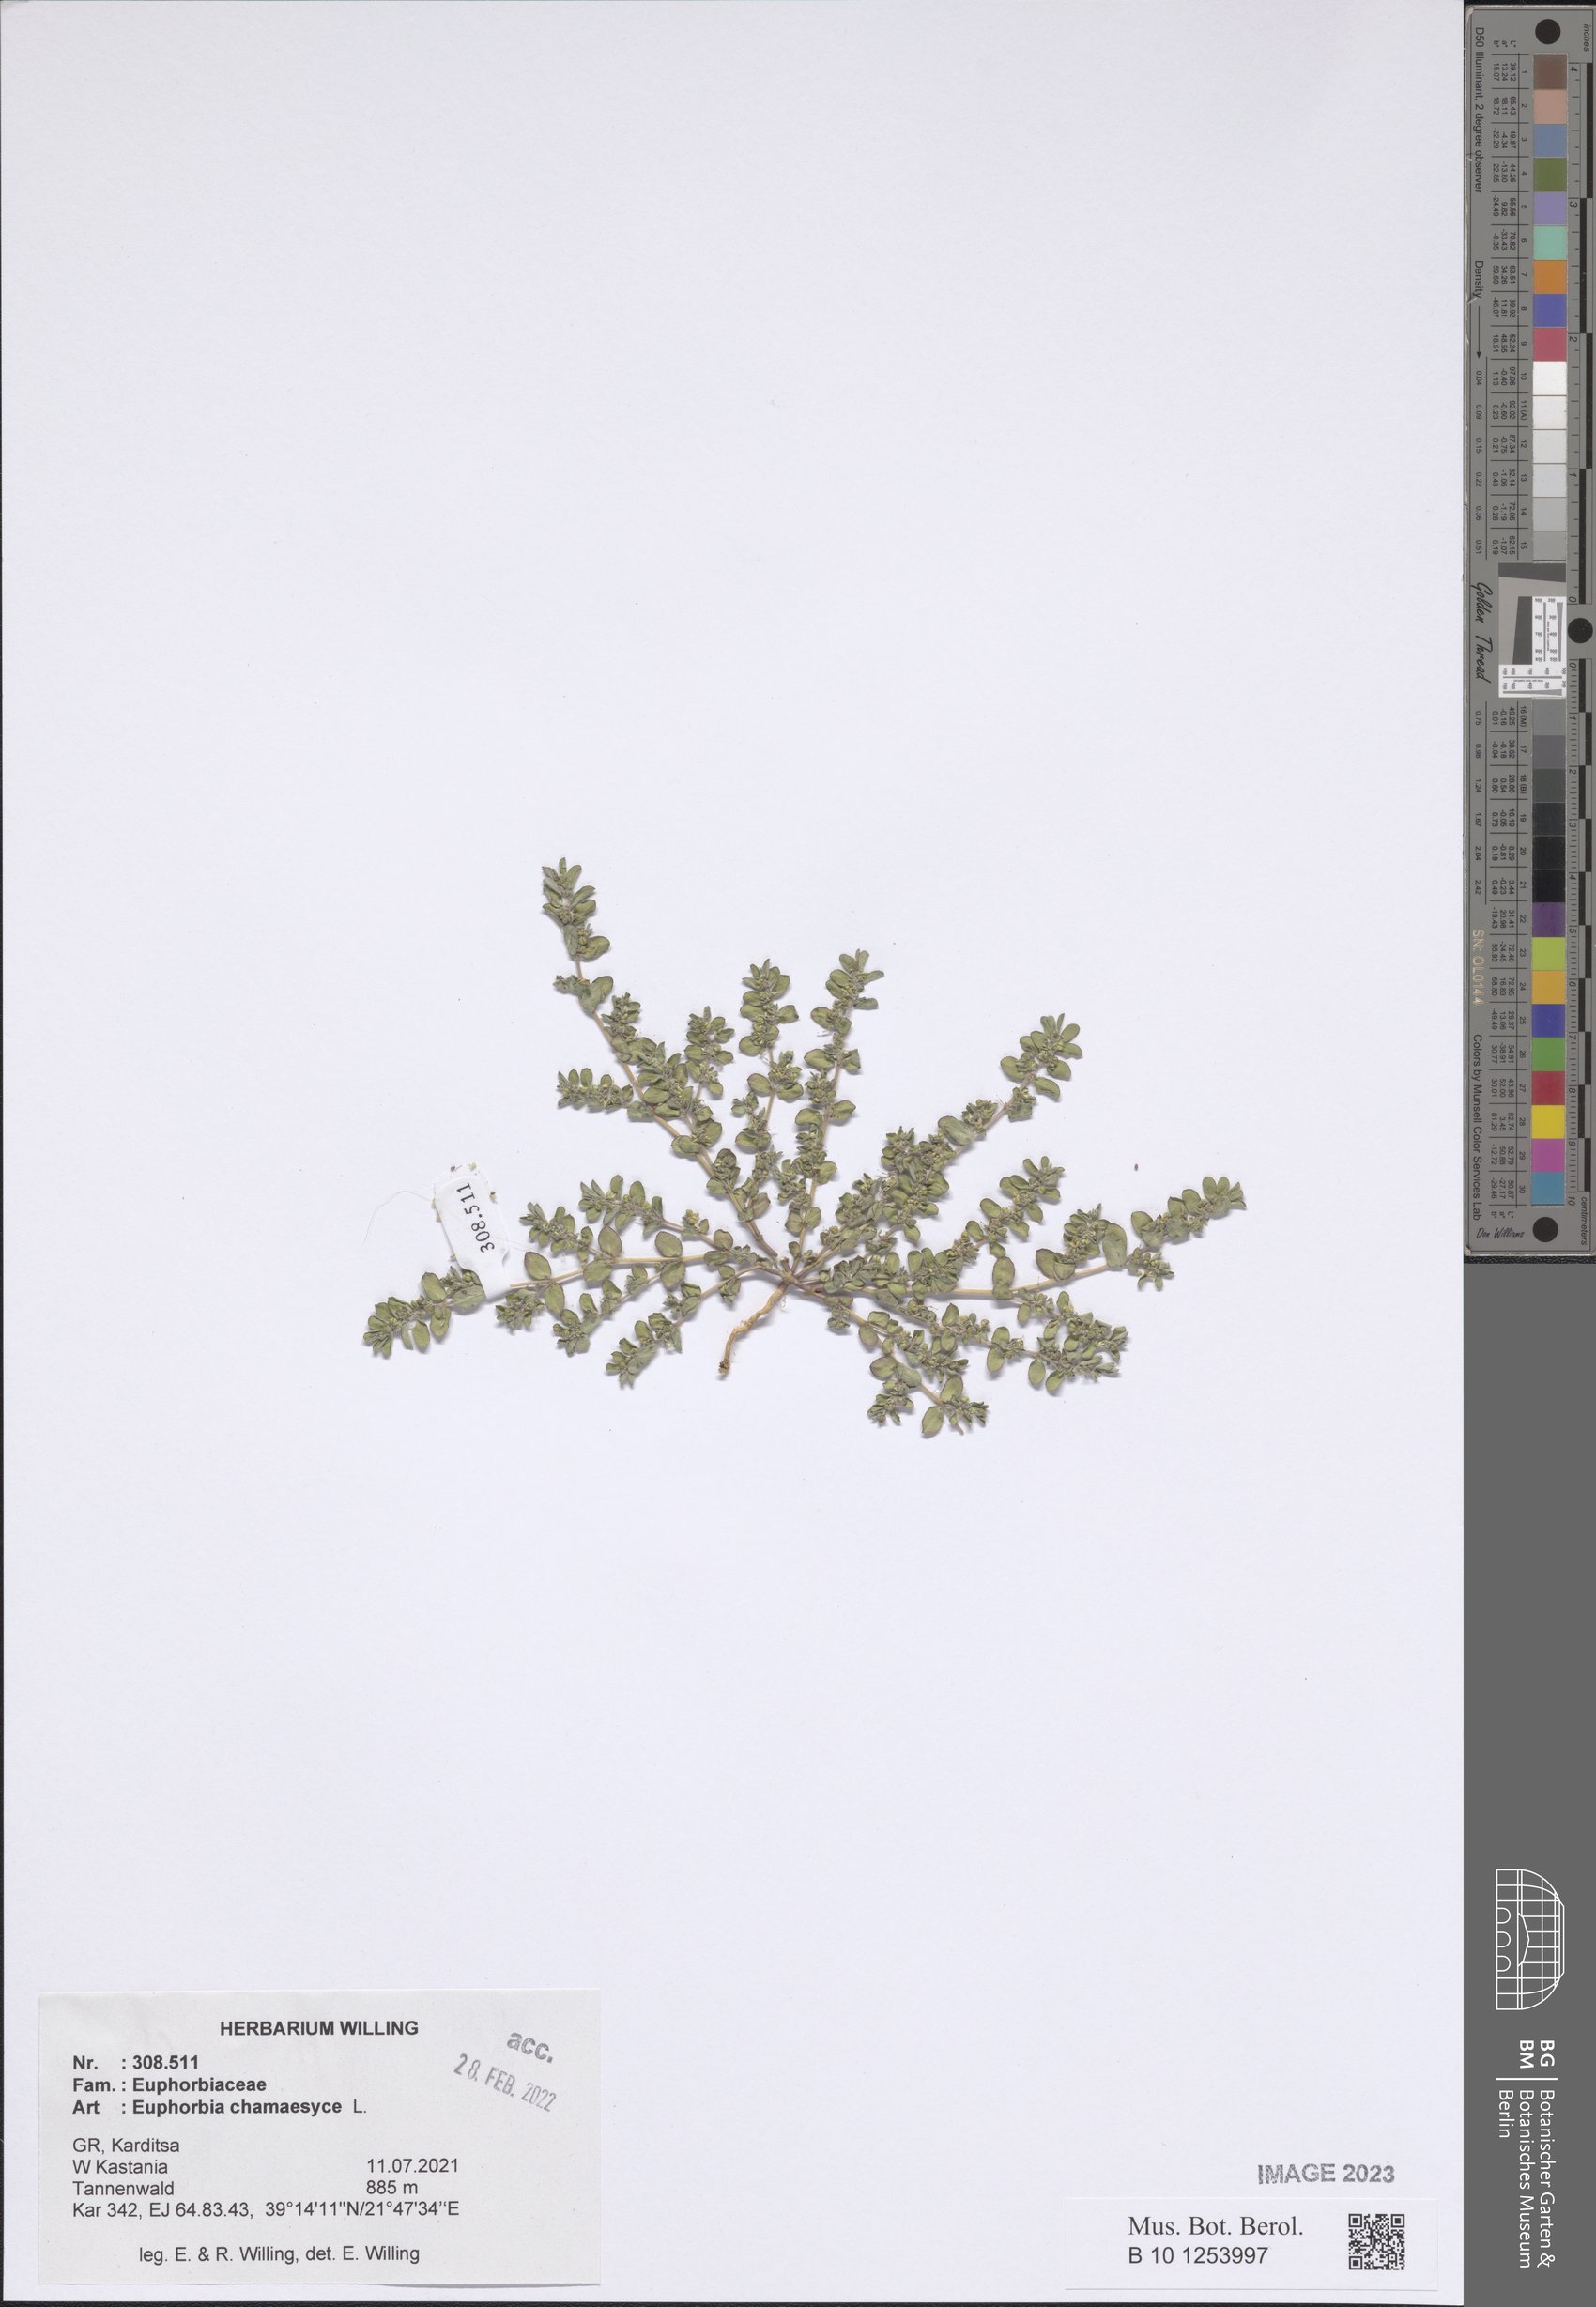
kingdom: Plantae
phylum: Tracheophyta
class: Magnoliopsida
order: Malpighiales
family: Euphorbiaceae
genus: Euphorbia
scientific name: Euphorbia chamaesyce
